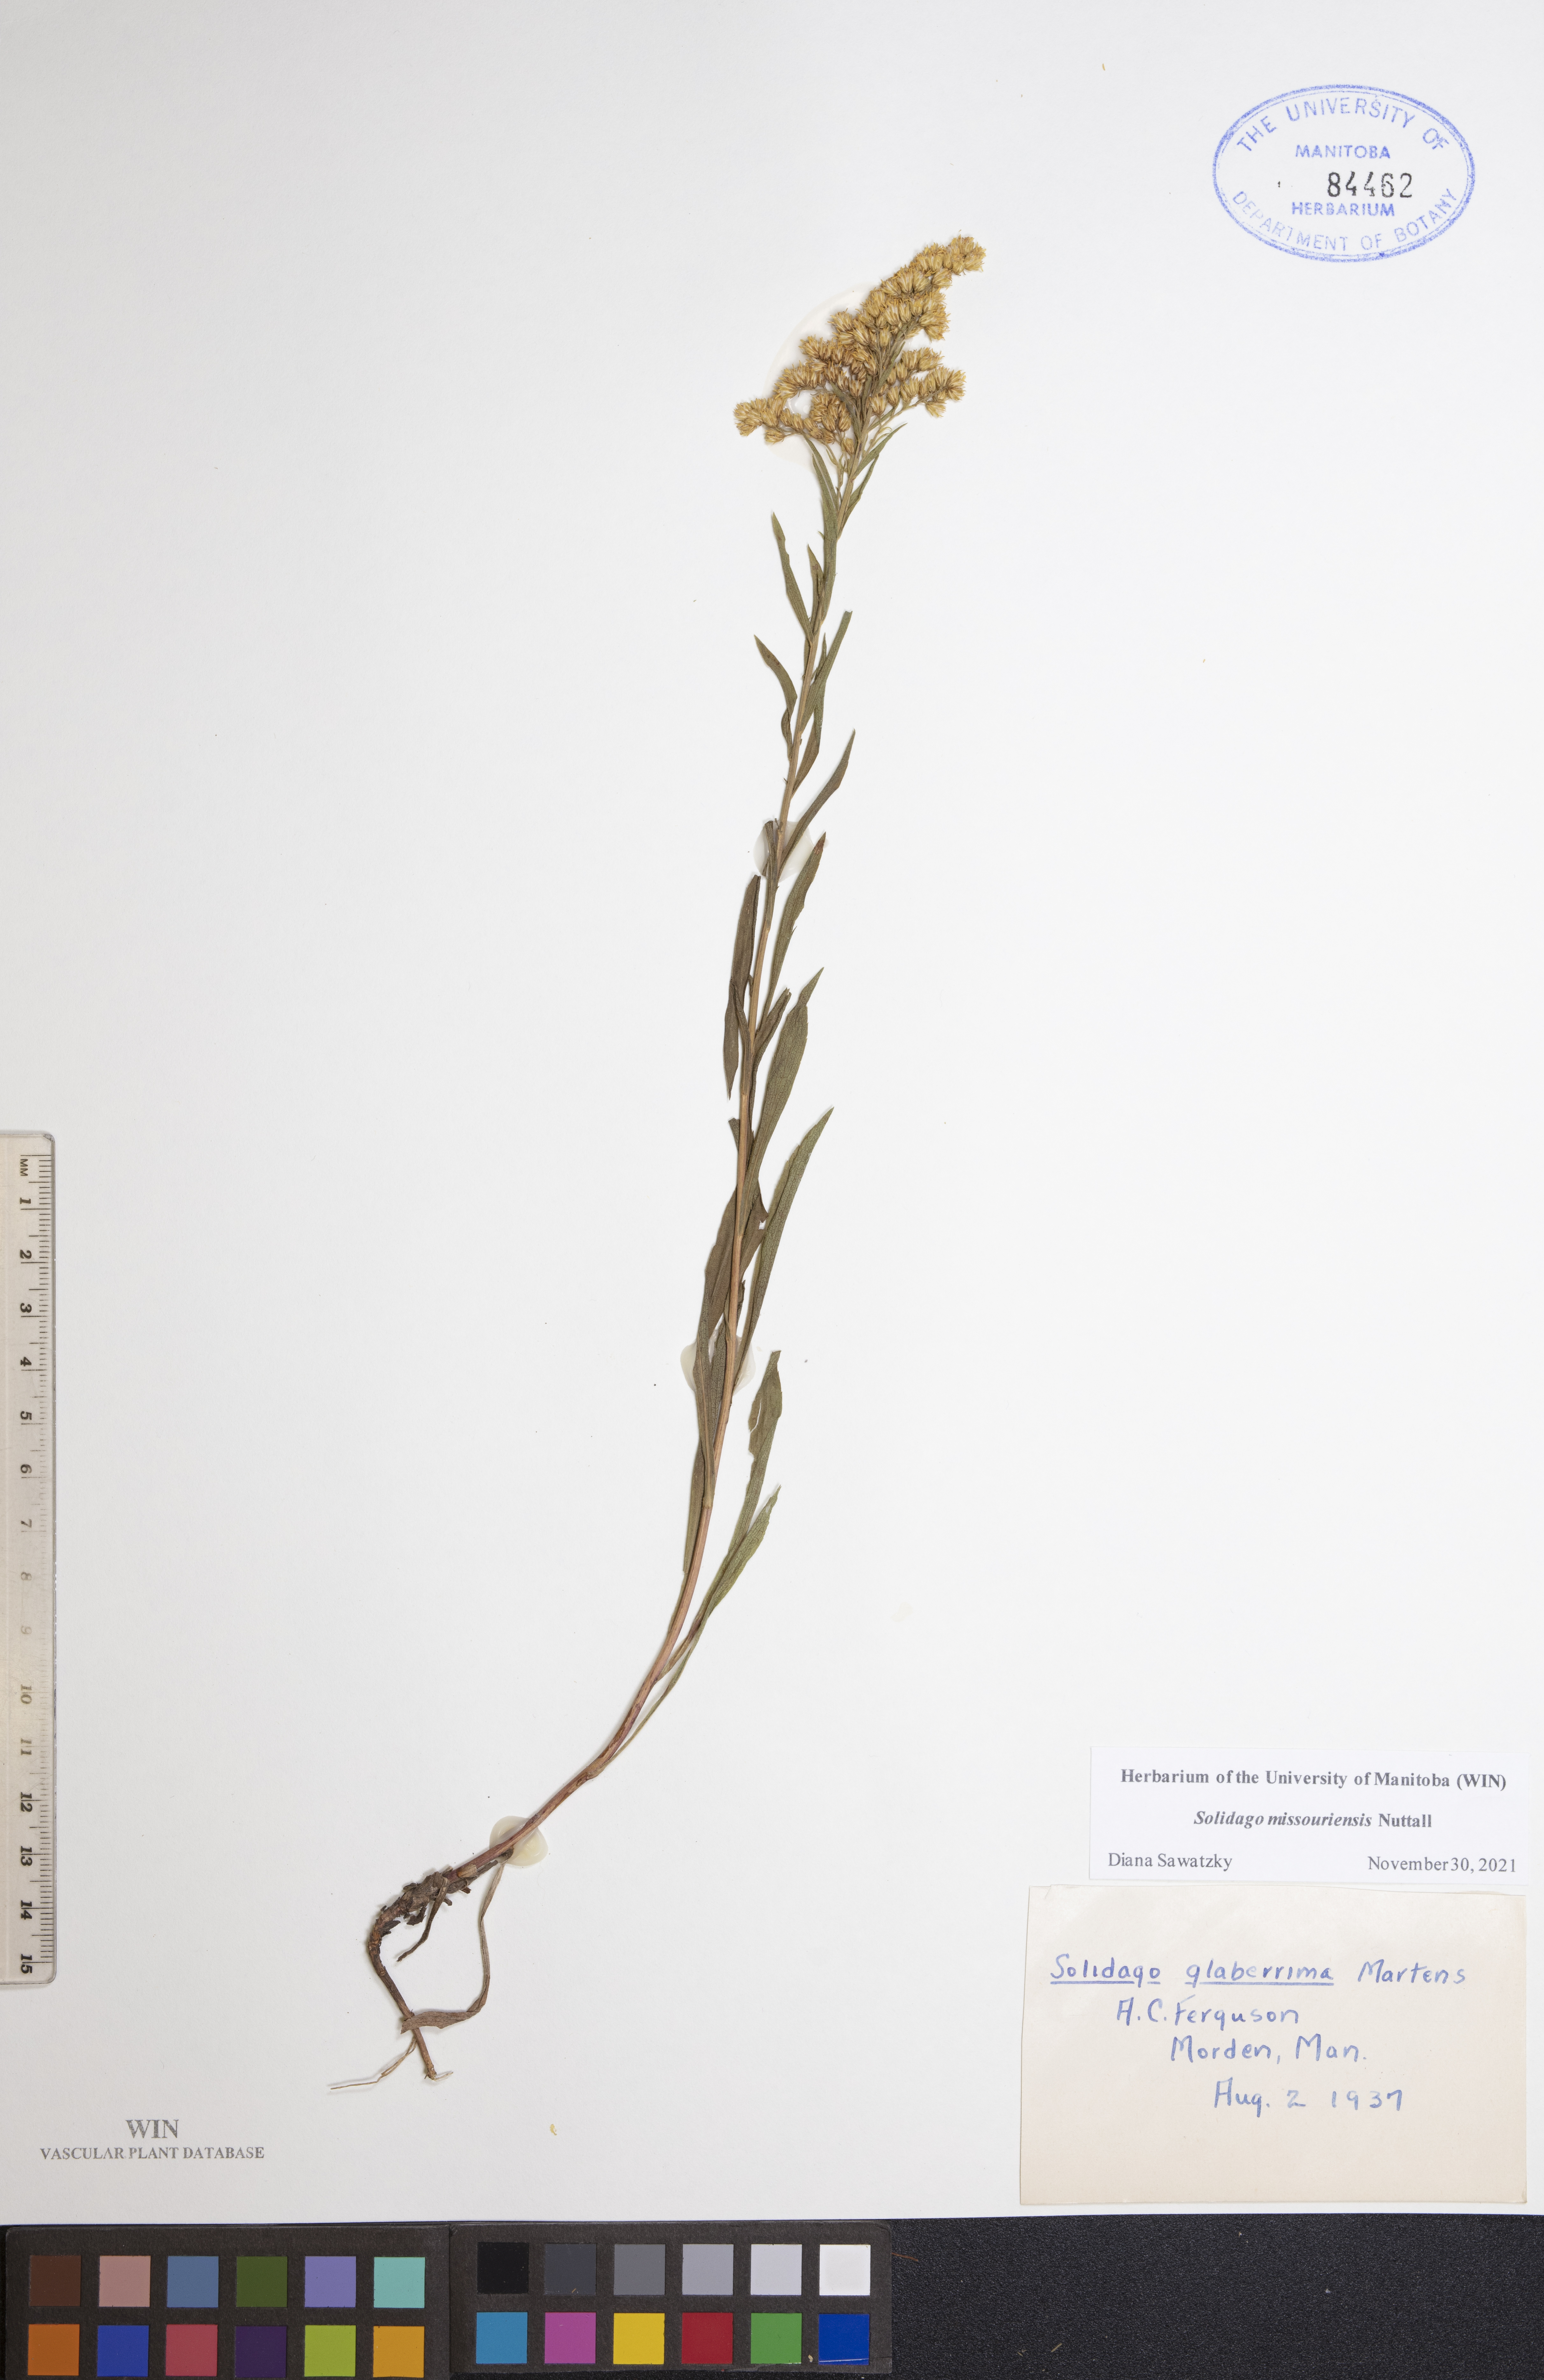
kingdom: Plantae
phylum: Tracheophyta
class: Magnoliopsida
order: Asterales
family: Asteraceae
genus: Solidago
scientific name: Solidago missouriensis
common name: Prairie goldenrod
